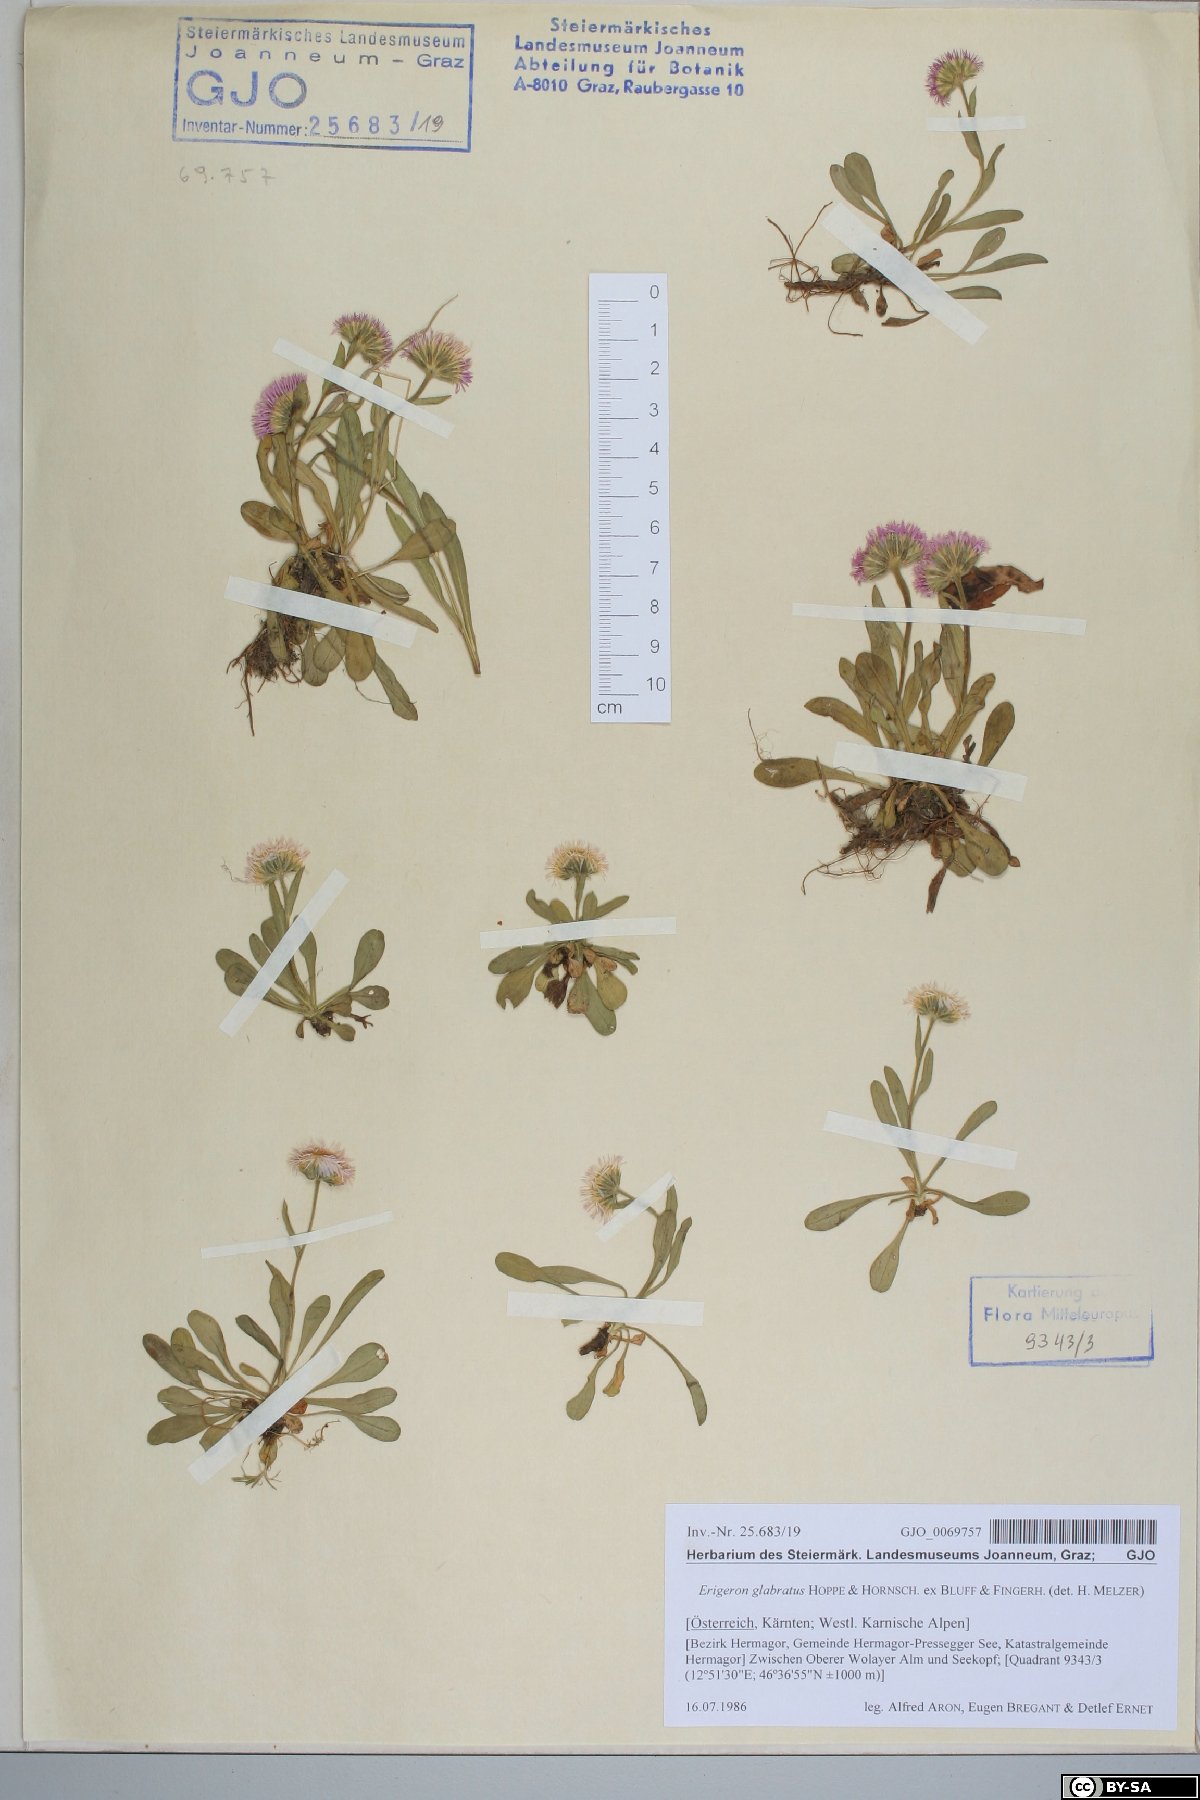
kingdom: Plantae
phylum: Tracheophyta
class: Magnoliopsida
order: Asterales
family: Asteraceae
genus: Erigeron
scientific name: Erigeron glabratus
